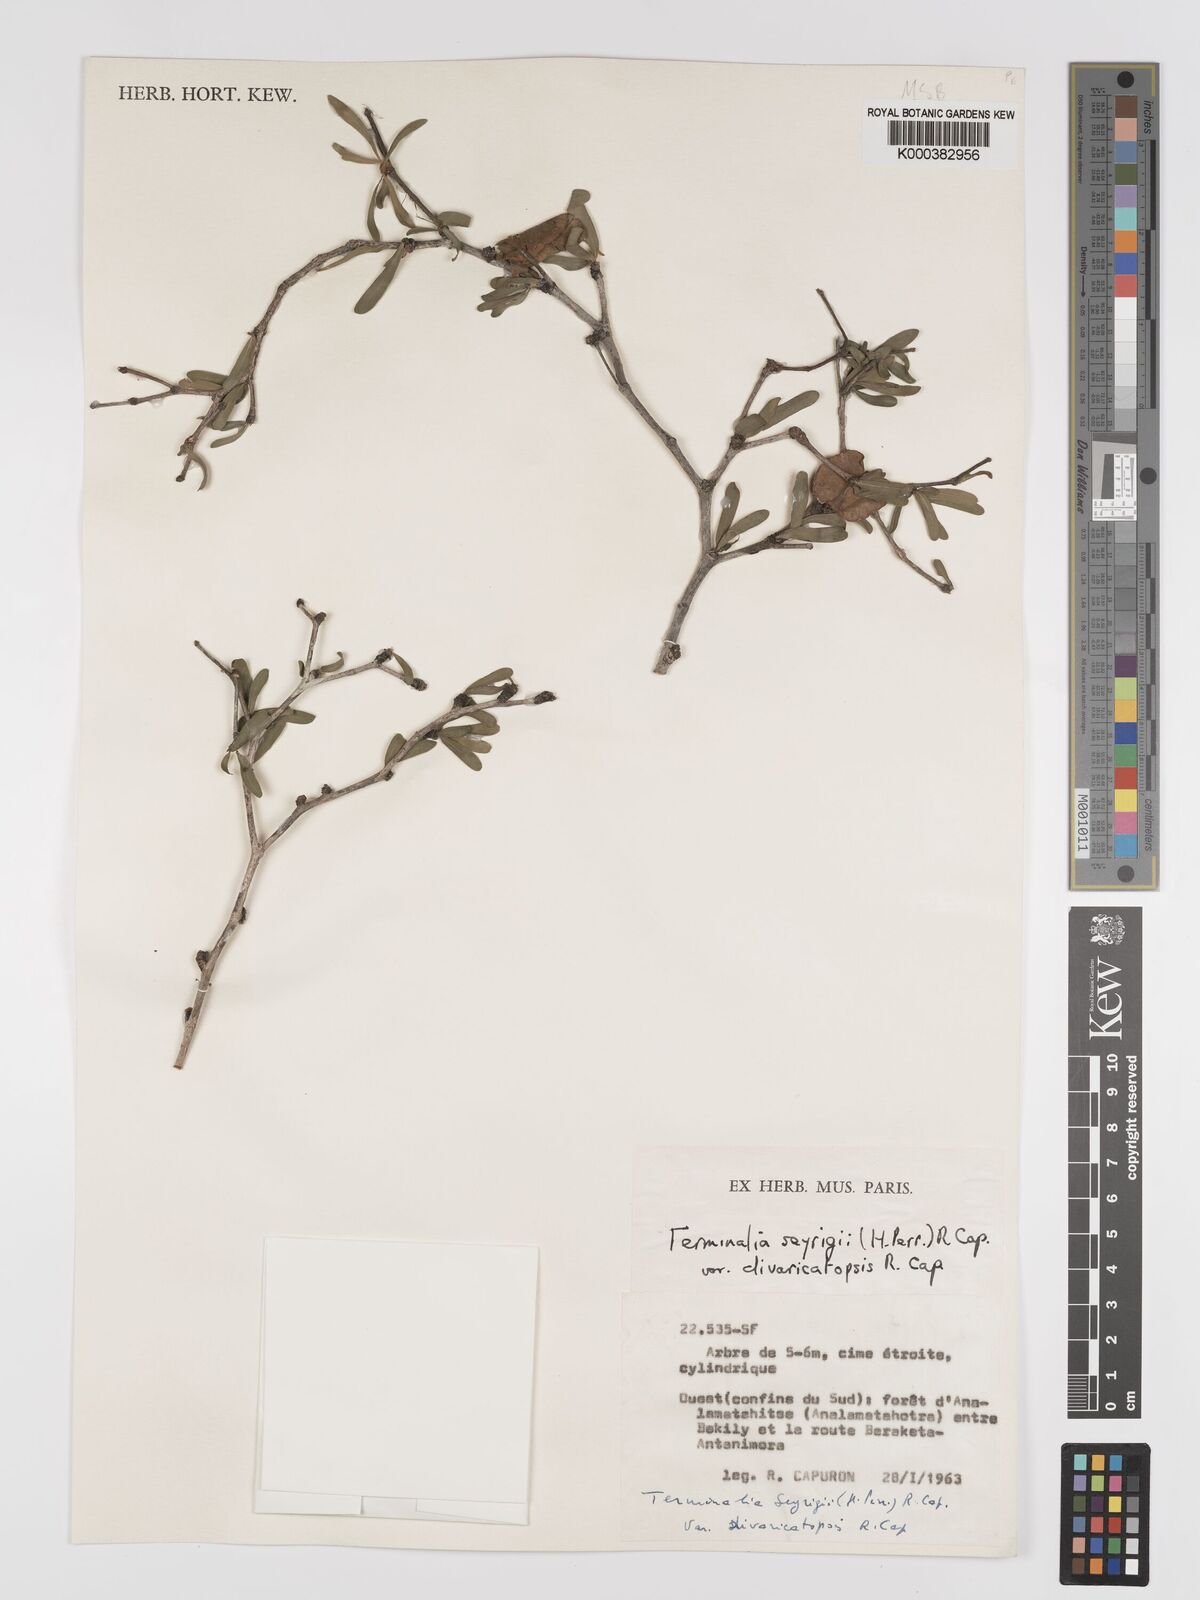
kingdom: Plantae
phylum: Tracheophyta
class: Magnoliopsida
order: Myrtales
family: Combretaceae
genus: Terminalia
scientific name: Terminalia
